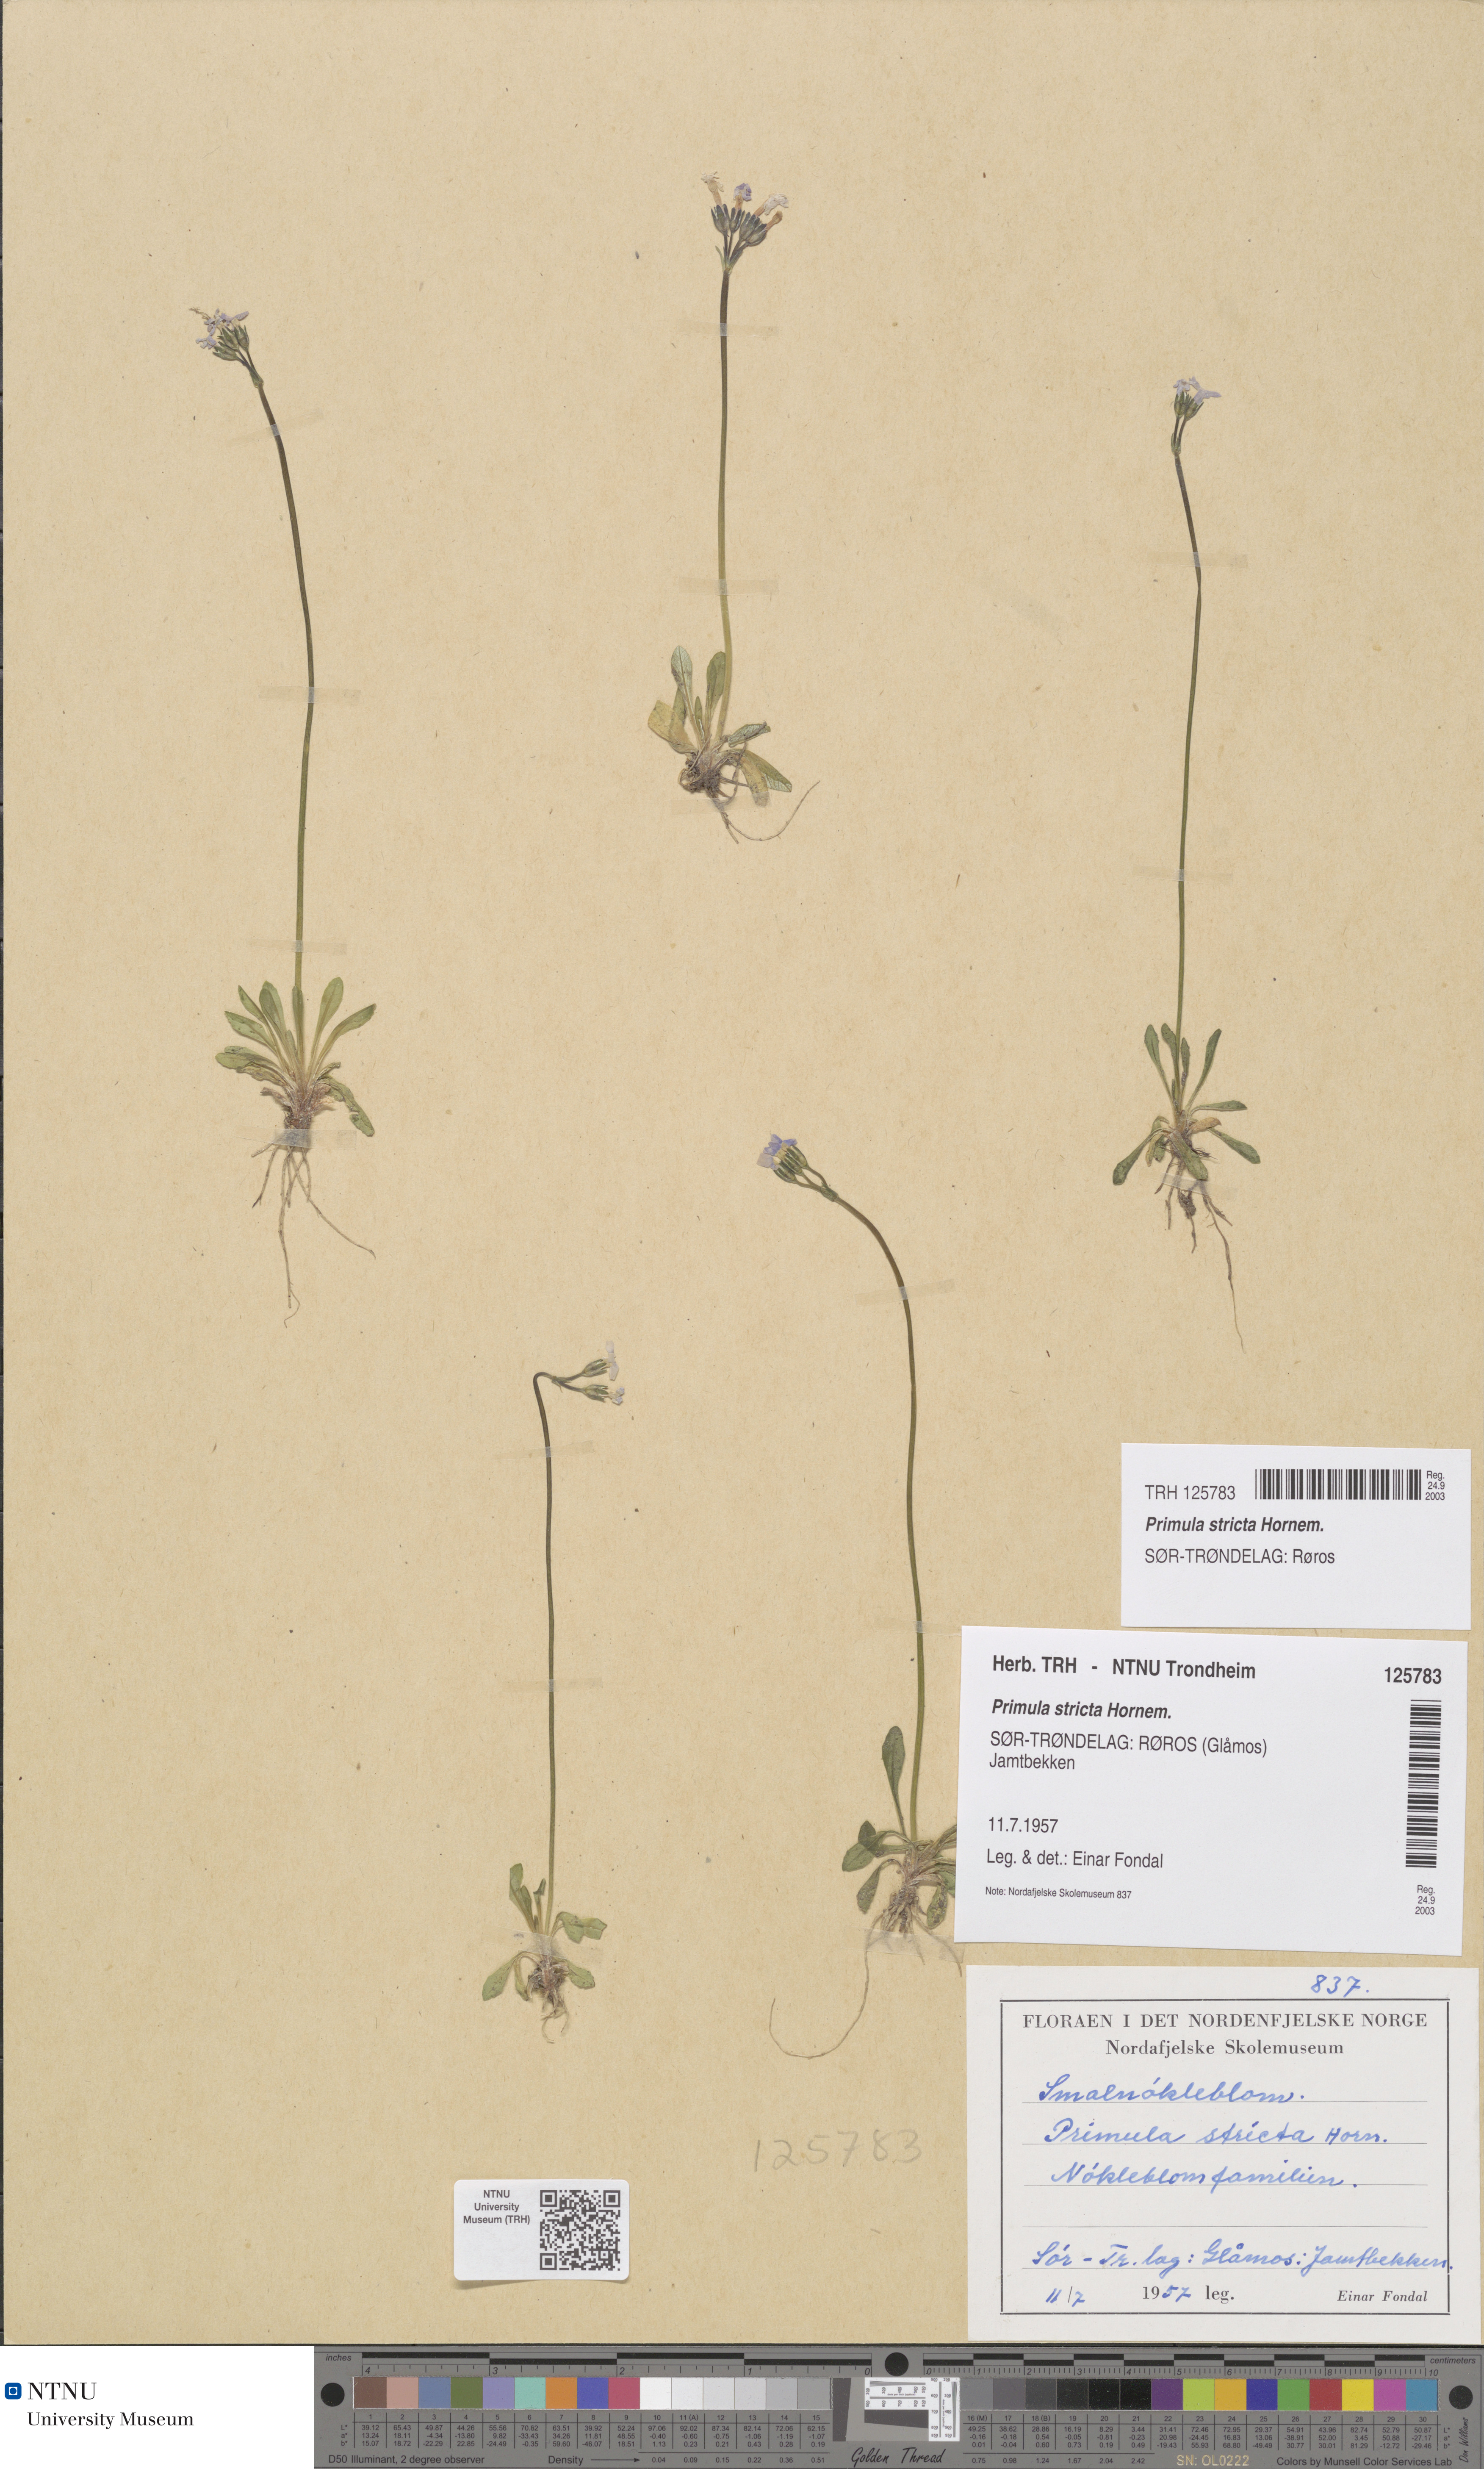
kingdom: Plantae
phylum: Tracheophyta
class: Magnoliopsida
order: Ericales
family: Primulaceae
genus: Primula
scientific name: Primula stricta
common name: Coastal primrose
